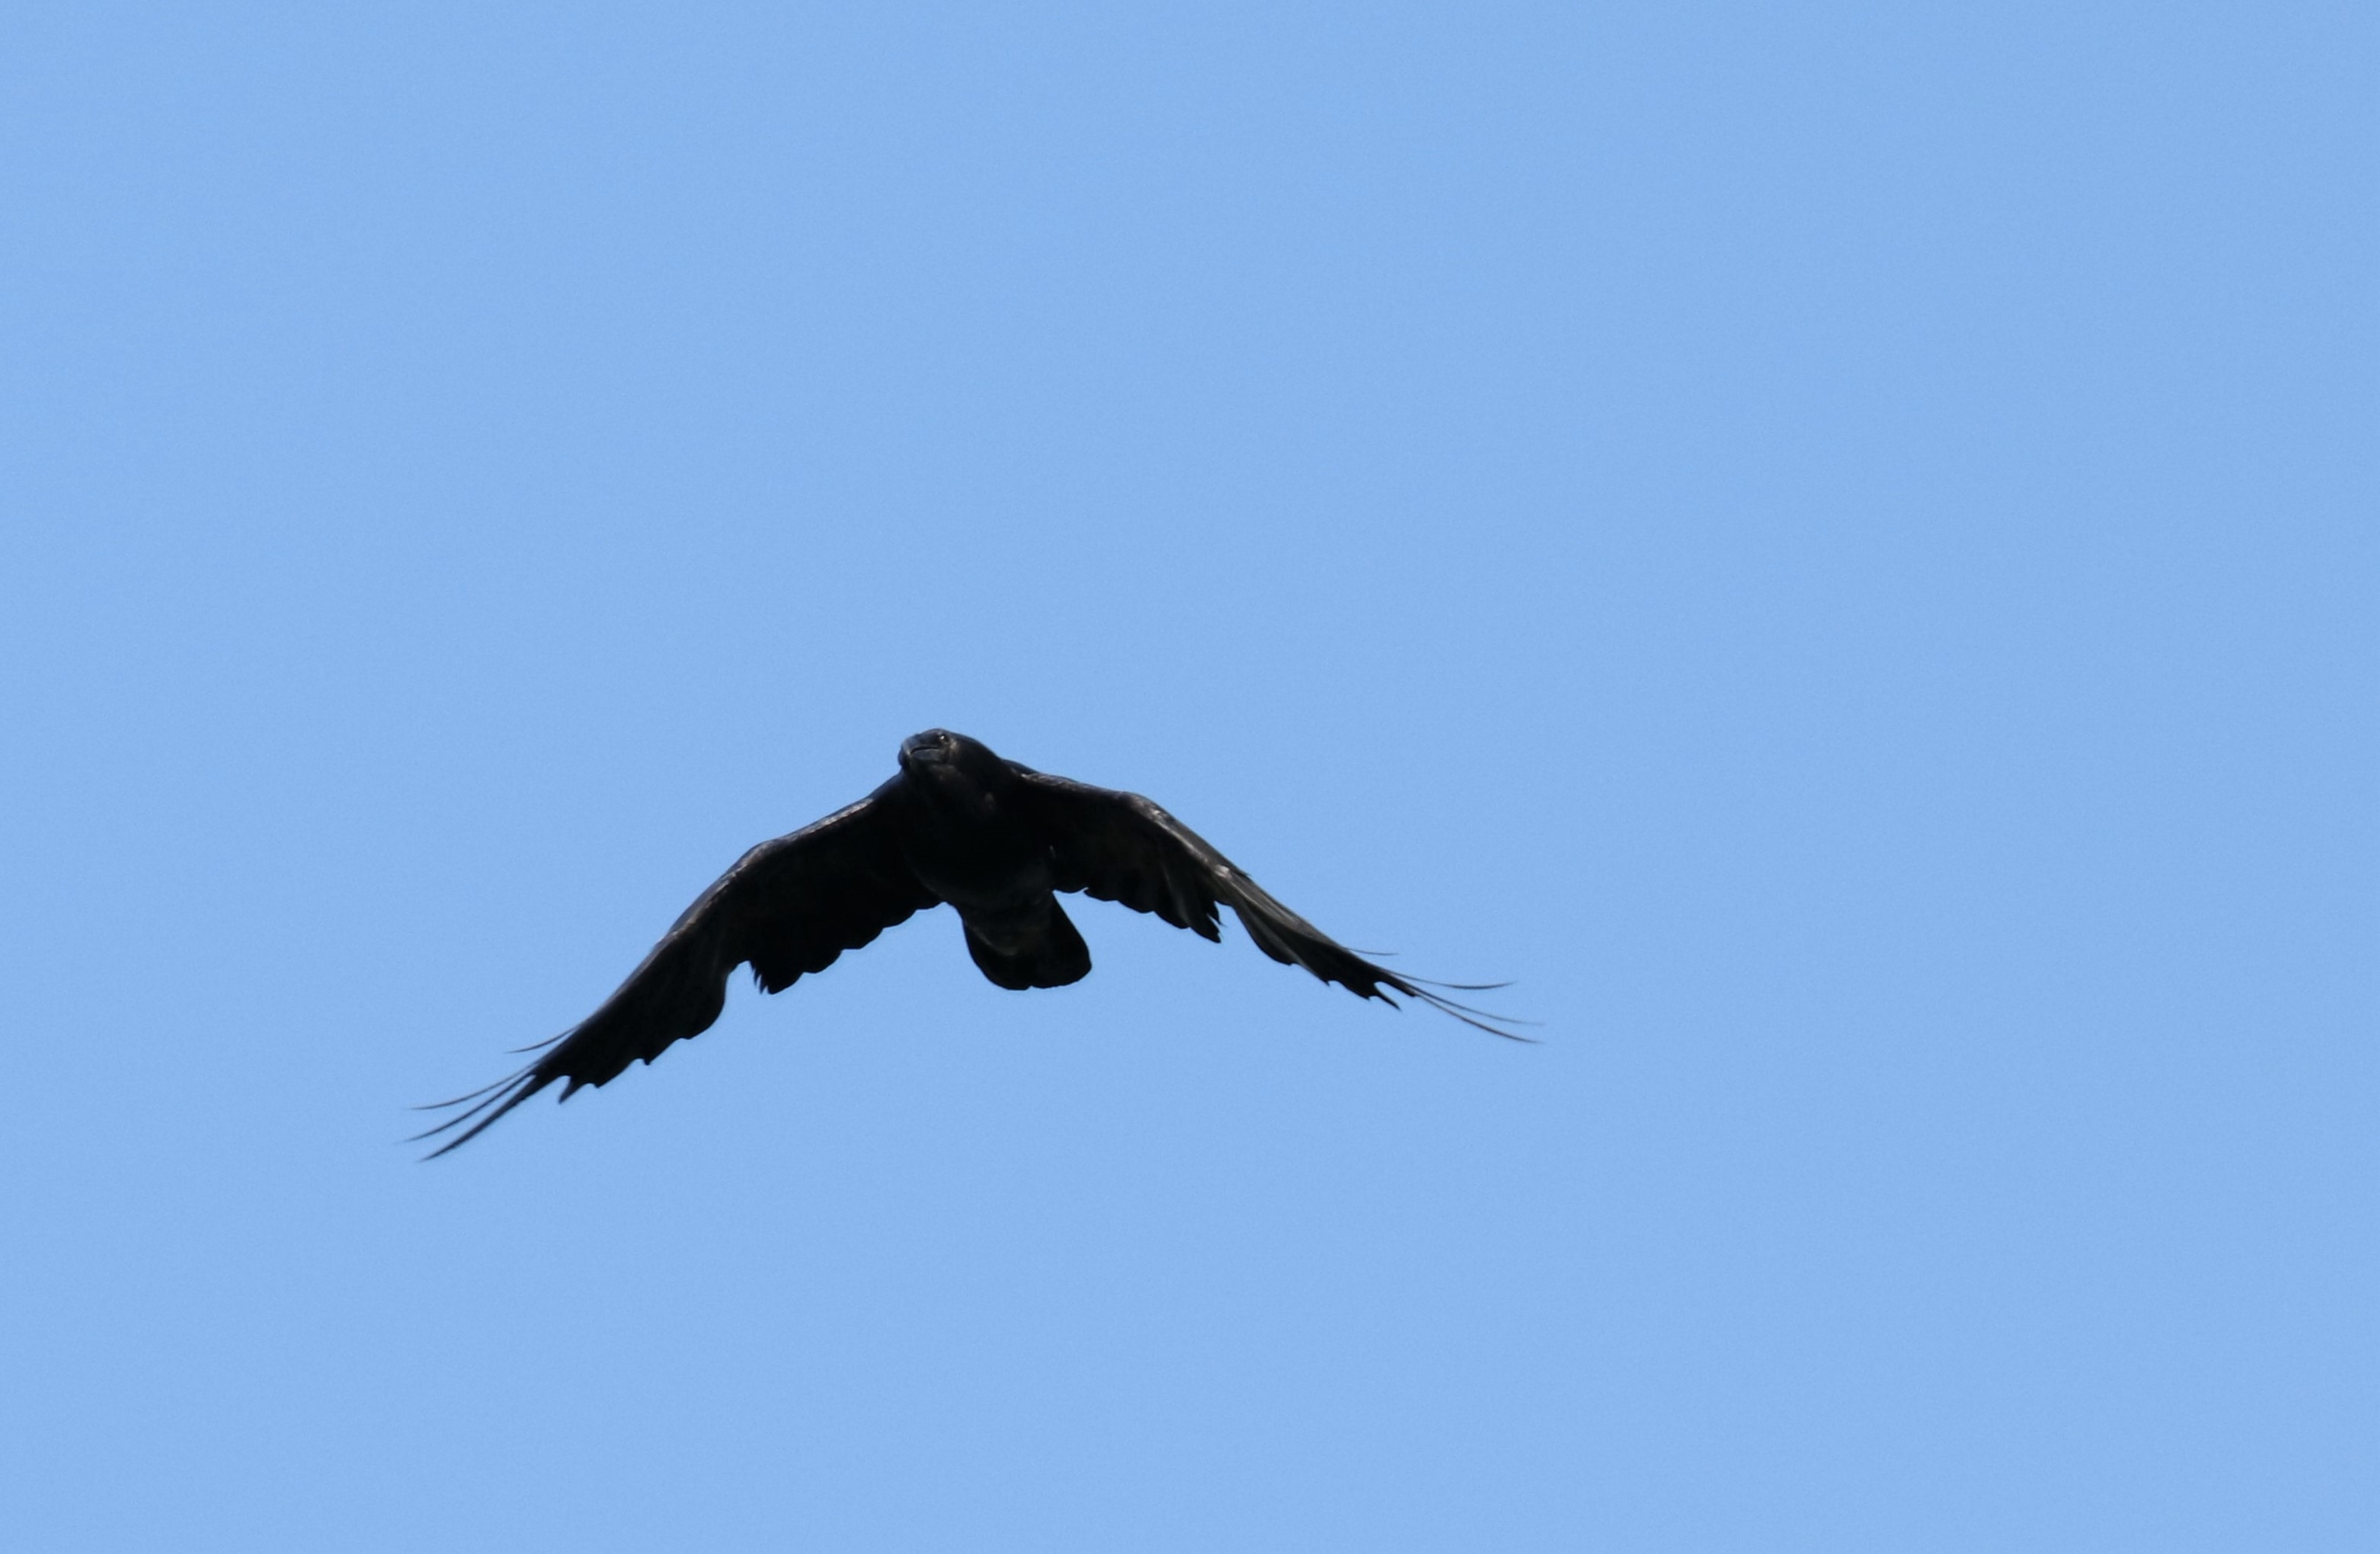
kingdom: Animalia
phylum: Chordata
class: Aves
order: Passeriformes
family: Corvidae
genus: Corvus
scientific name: Corvus corax
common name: Ravn
